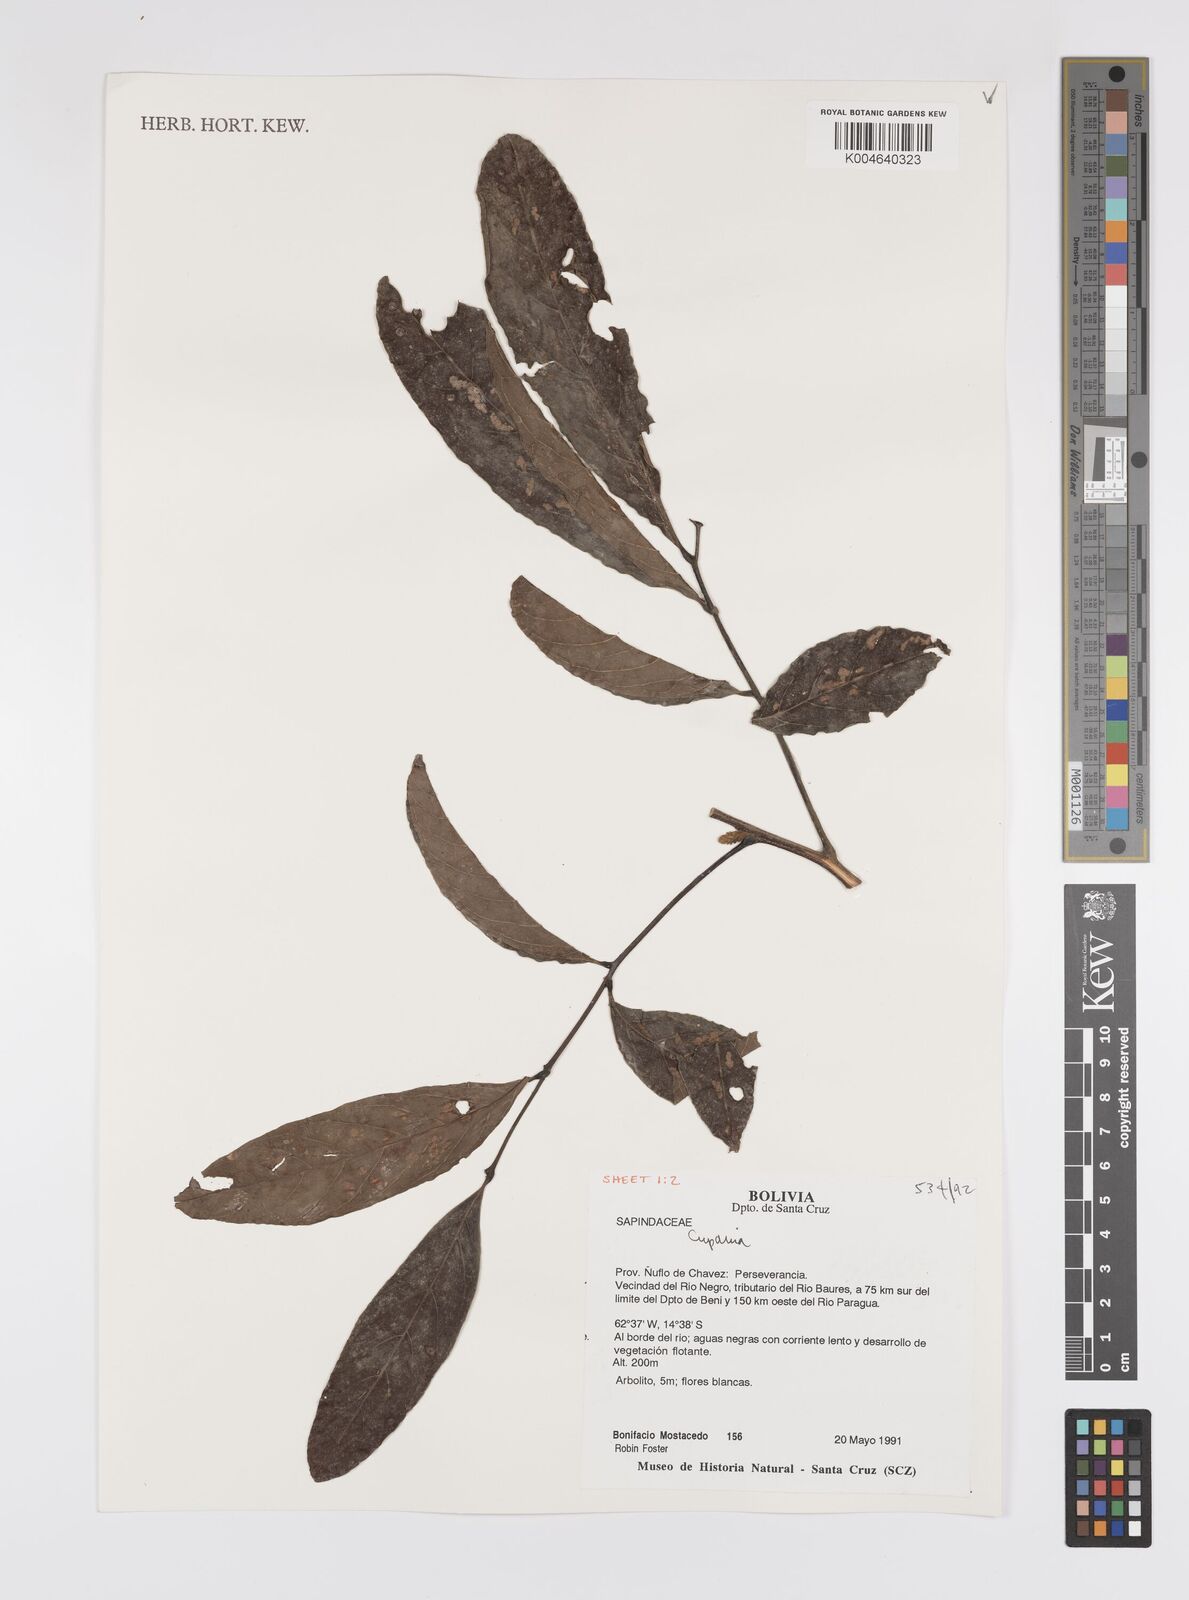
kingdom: Plantae
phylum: Tracheophyta
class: Magnoliopsida
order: Sapindales
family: Sapindaceae
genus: Cupania
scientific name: Cupania
